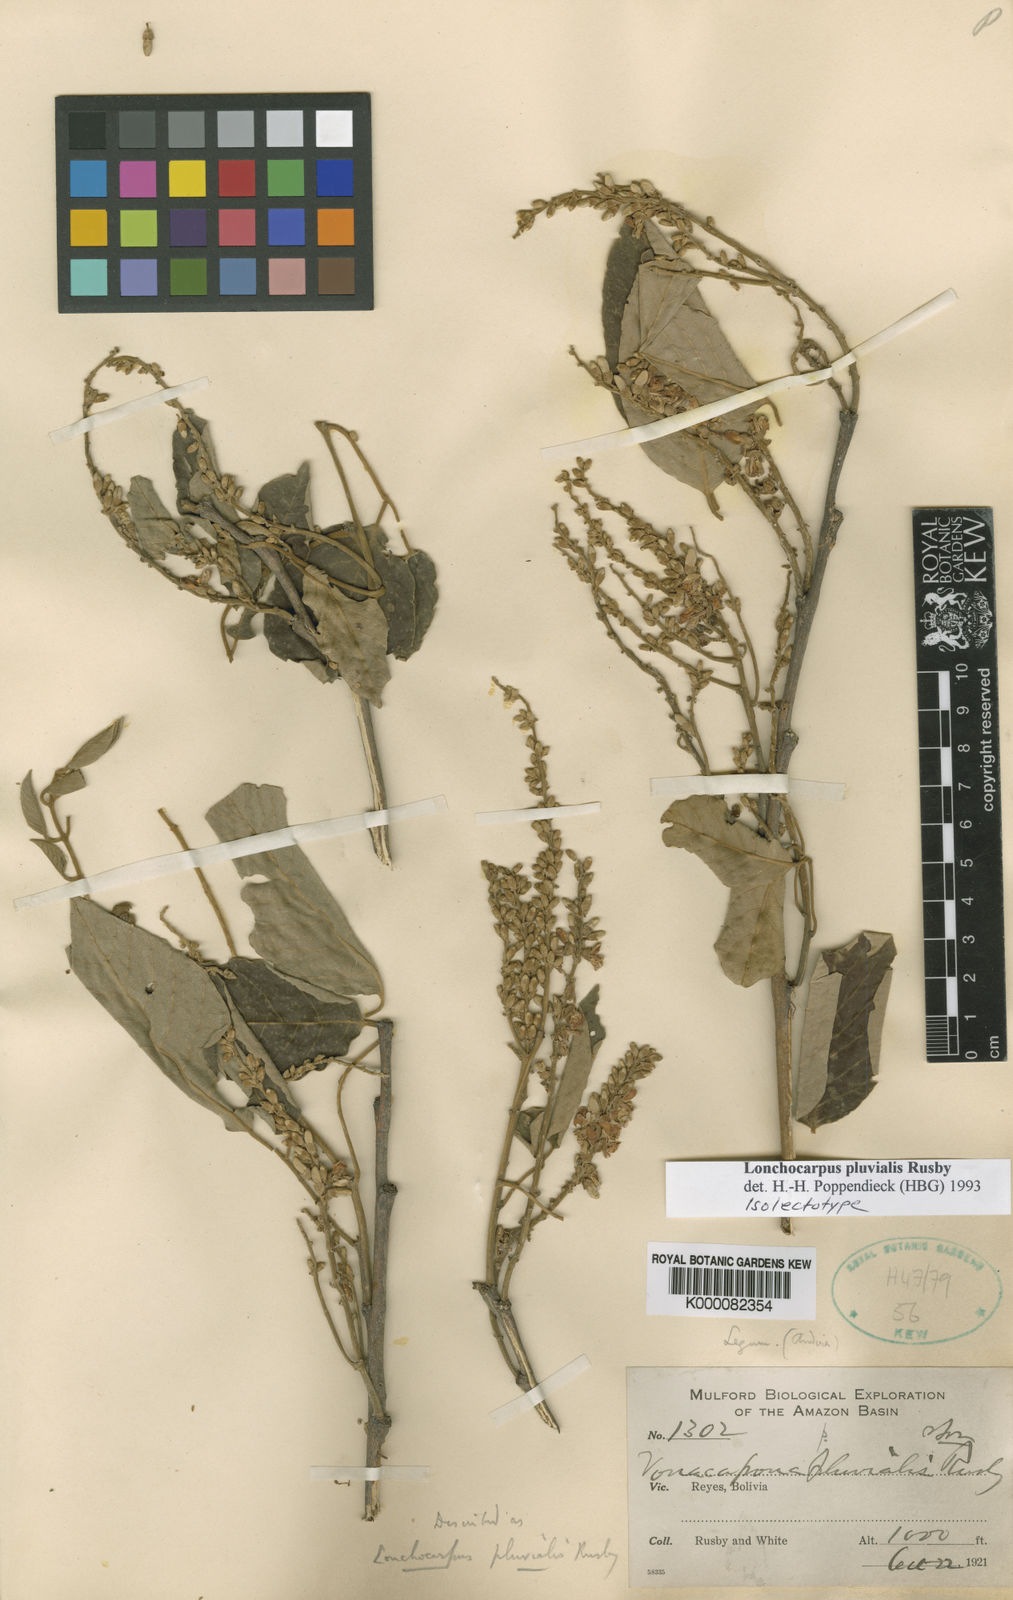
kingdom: Plantae
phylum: Tracheophyta
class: Magnoliopsida
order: Fabales
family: Fabaceae
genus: Lonchocarpus
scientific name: Lonchocarpus pluvialis
